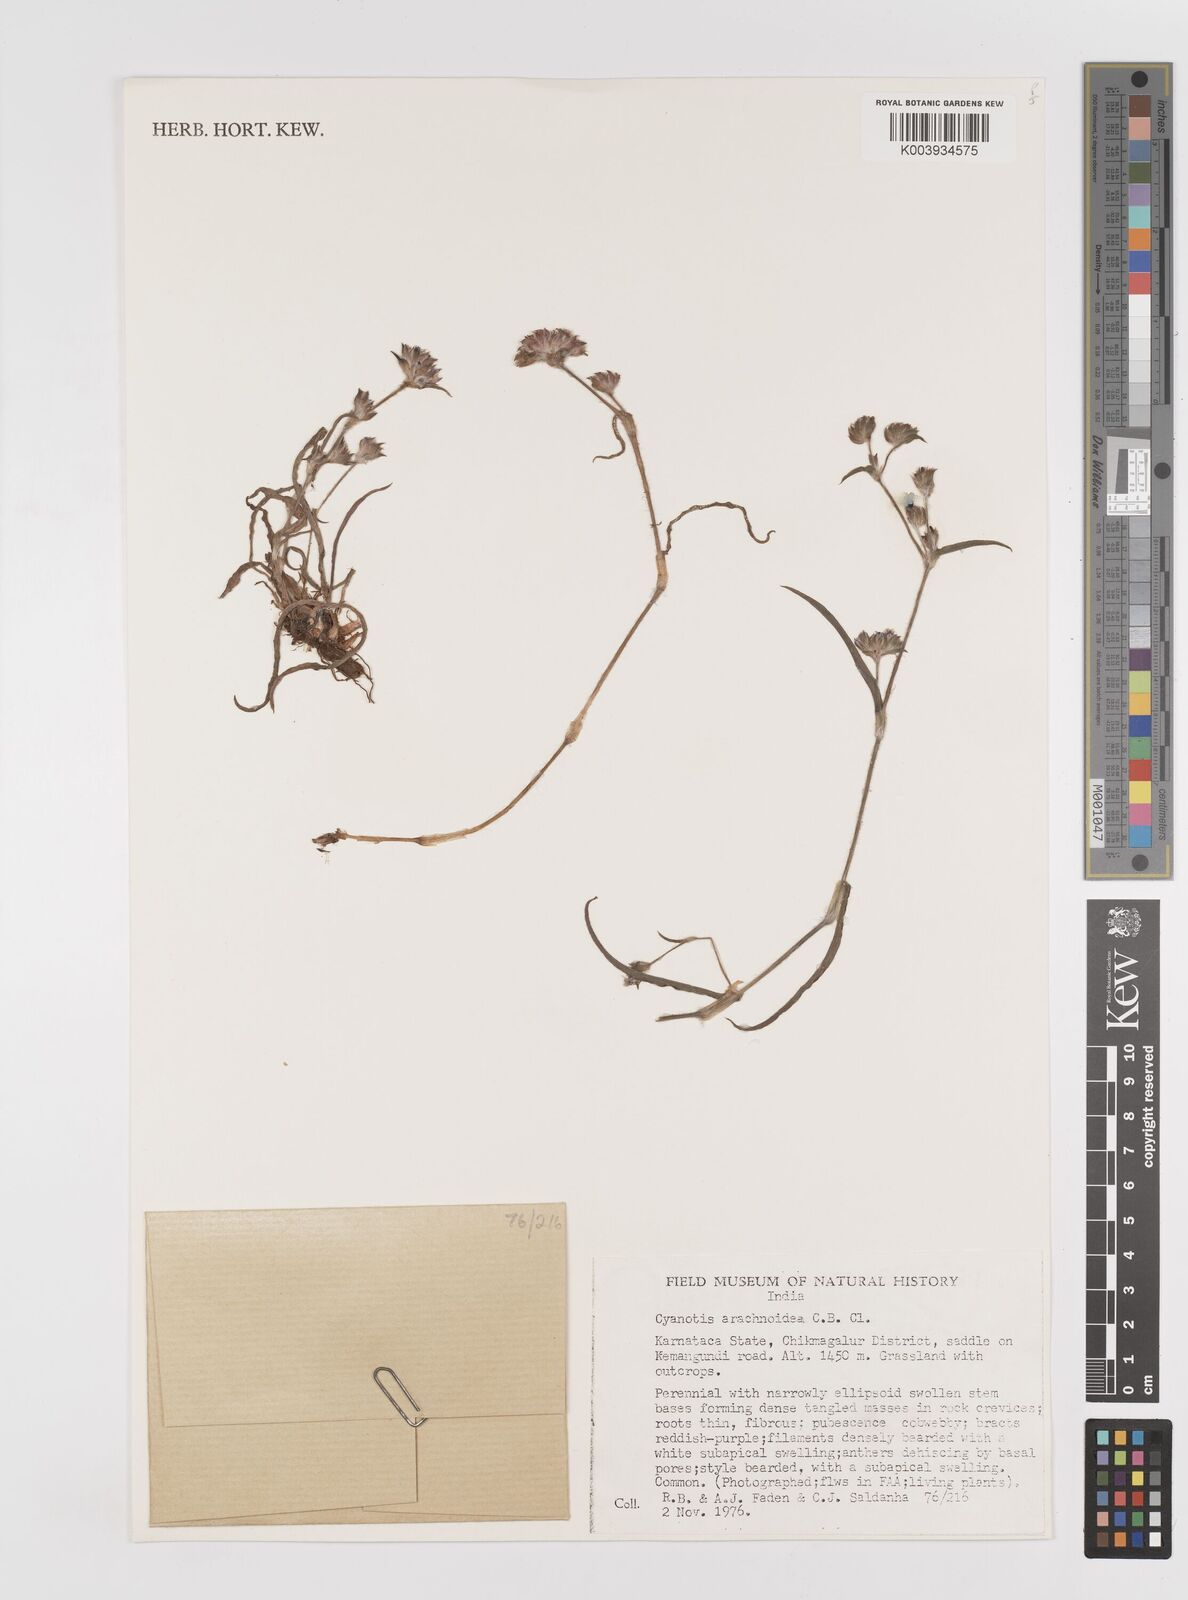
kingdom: Plantae
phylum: Tracheophyta
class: Liliopsida
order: Commelinales
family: Commelinaceae
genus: Cyanotis
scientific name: Cyanotis arachnoidea
